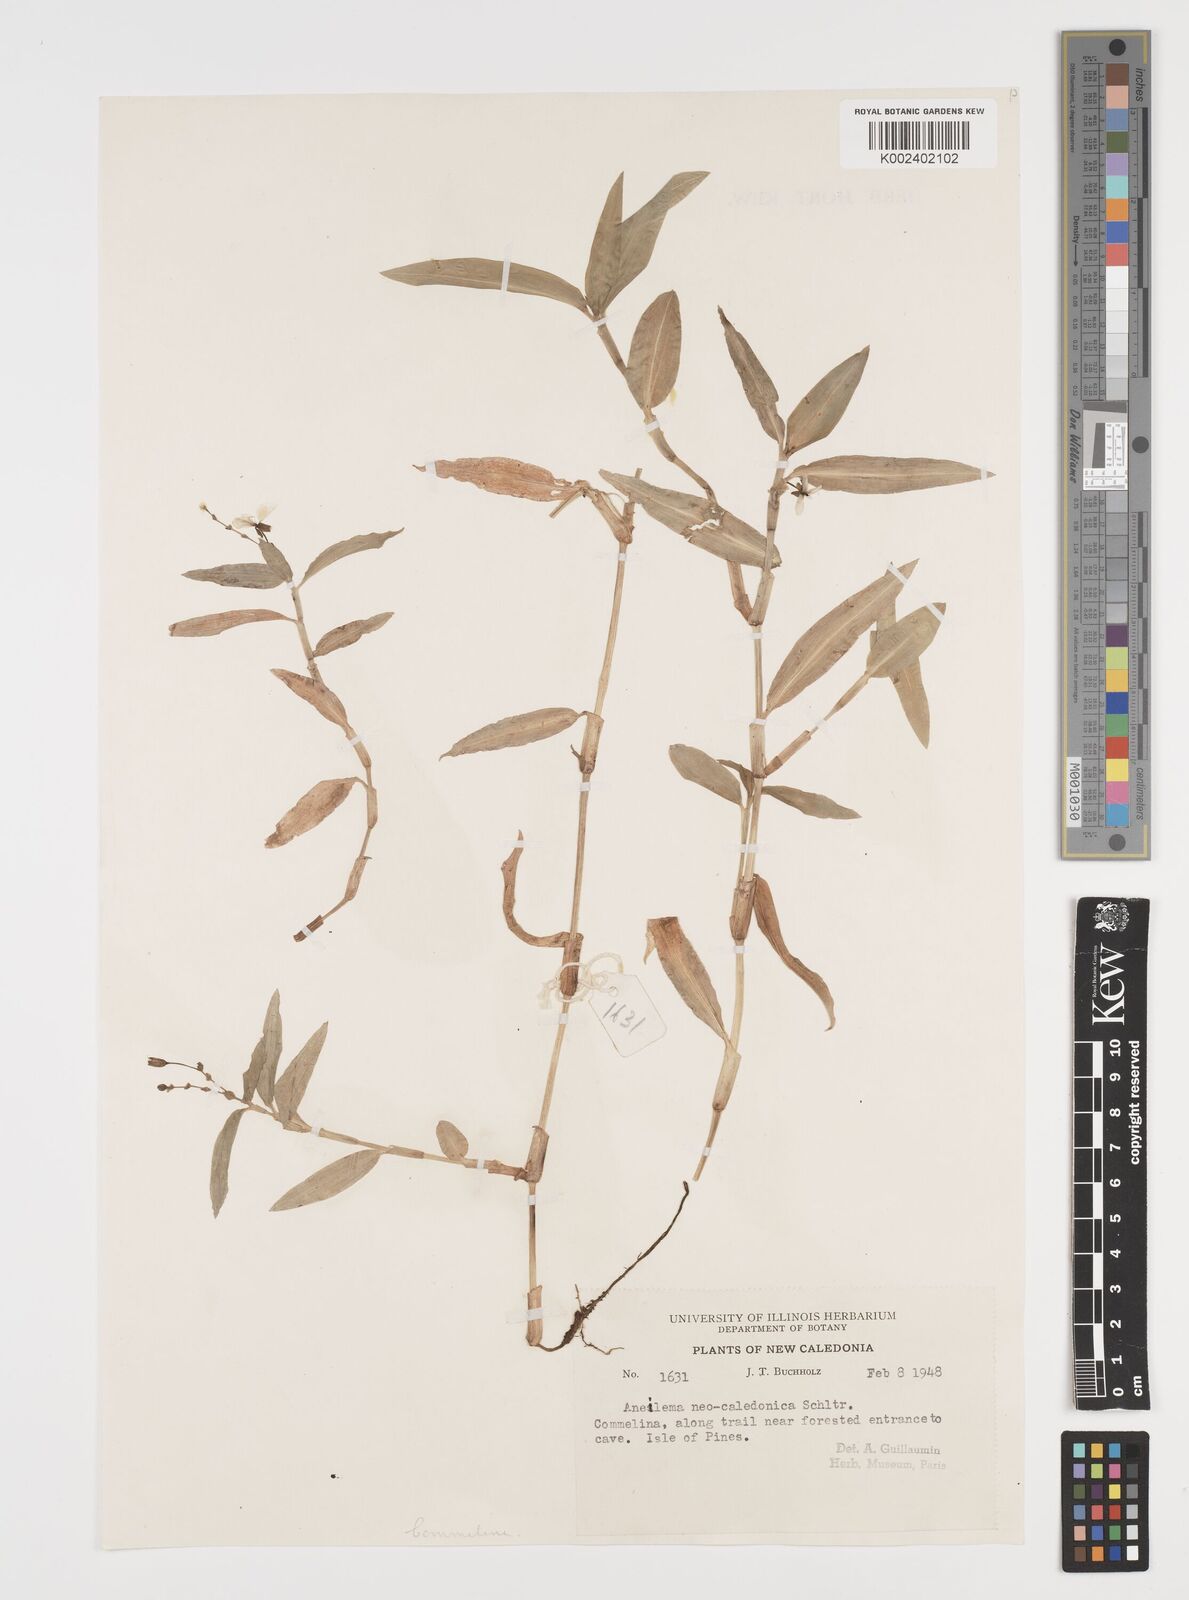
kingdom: Plantae
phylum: Tracheophyta
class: Liliopsida
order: Commelinales
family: Commelinaceae
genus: Aneilema
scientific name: Aneilema neocaledonicum
